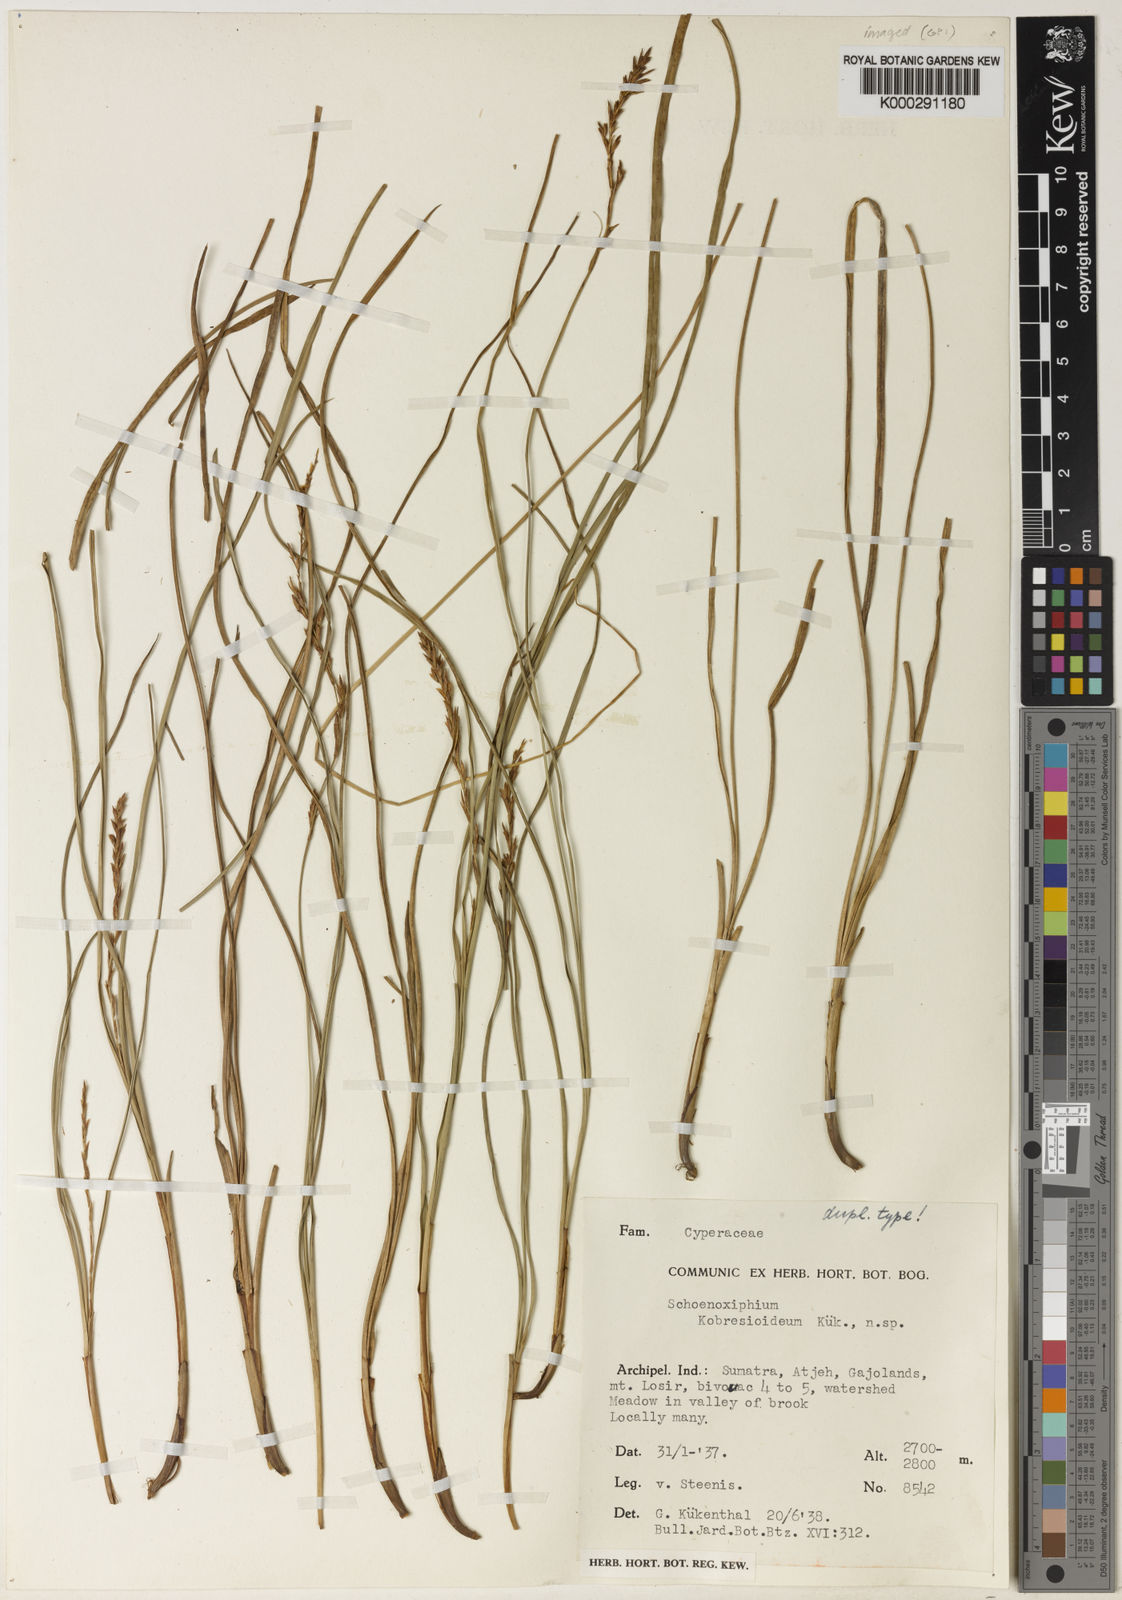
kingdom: Plantae
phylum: Tracheophyta
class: Liliopsida
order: Poales
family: Cyperaceae
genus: Carex
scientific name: Carex
